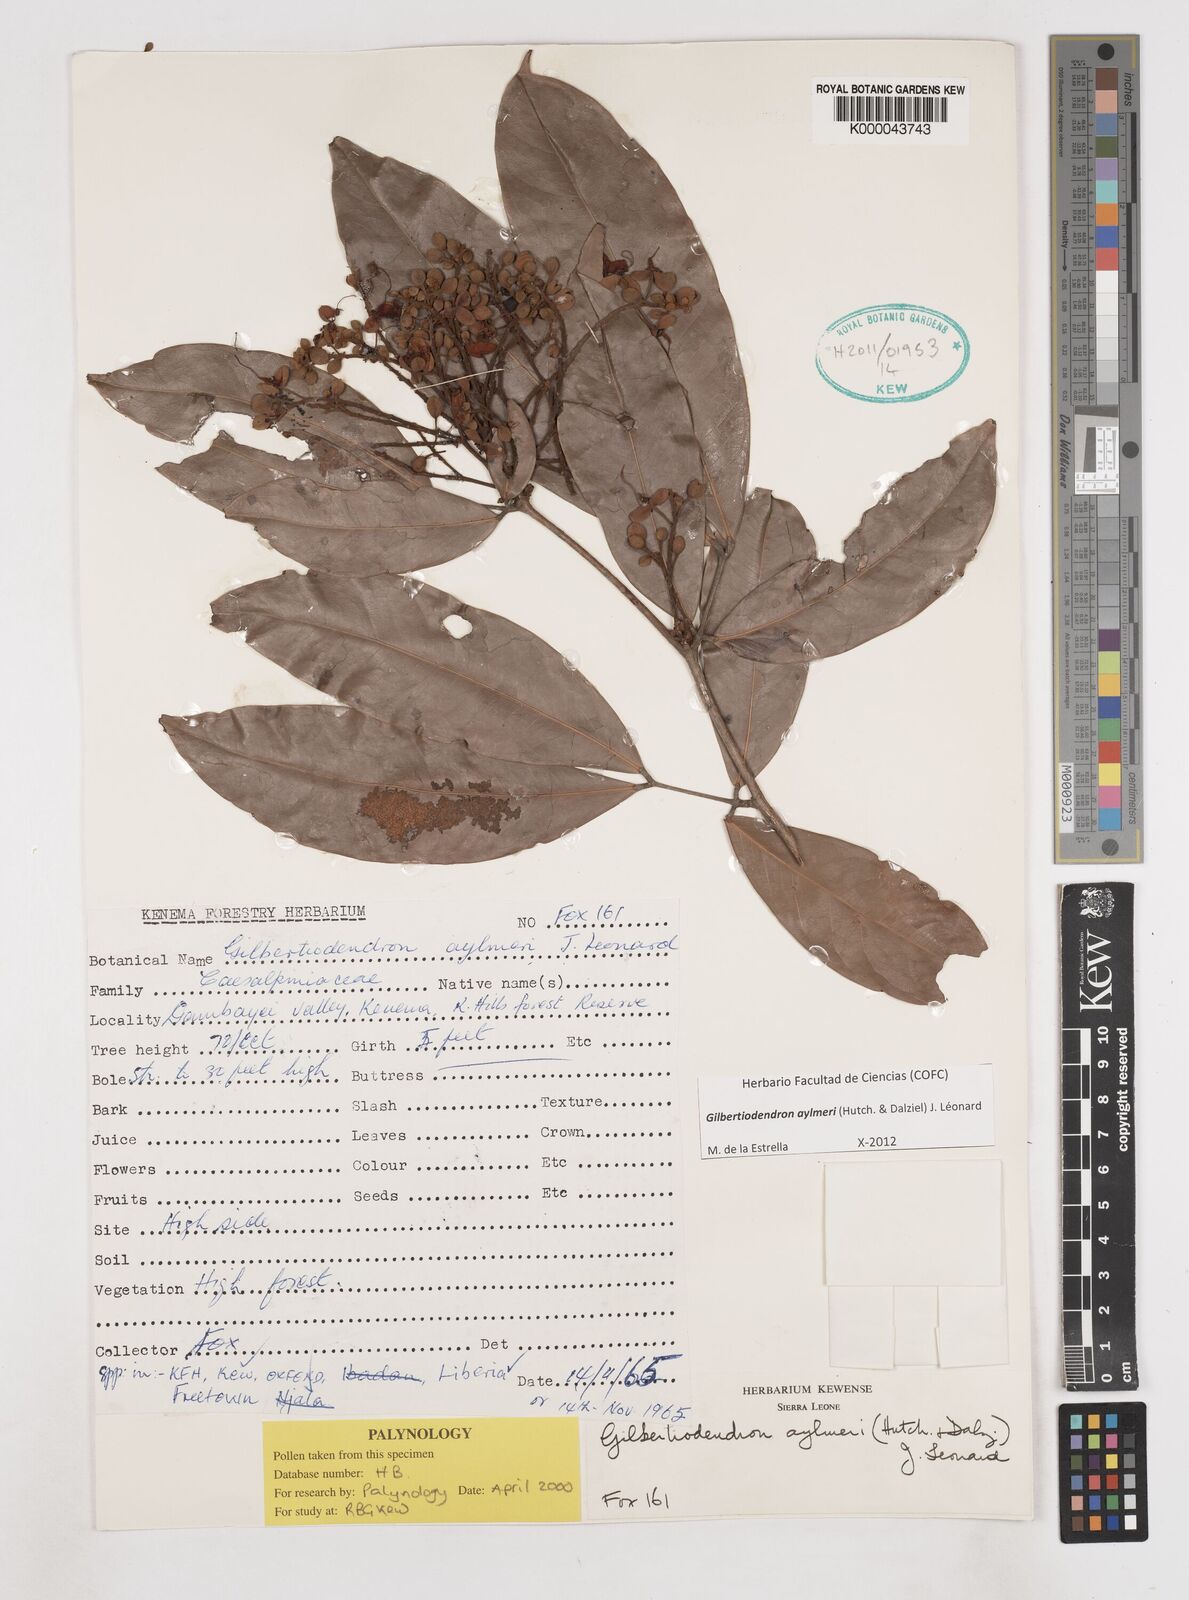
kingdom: Plantae
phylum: Tracheophyta
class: Magnoliopsida
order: Fabales
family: Fabaceae
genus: Gilbertiodendron
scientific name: Gilbertiodendron
